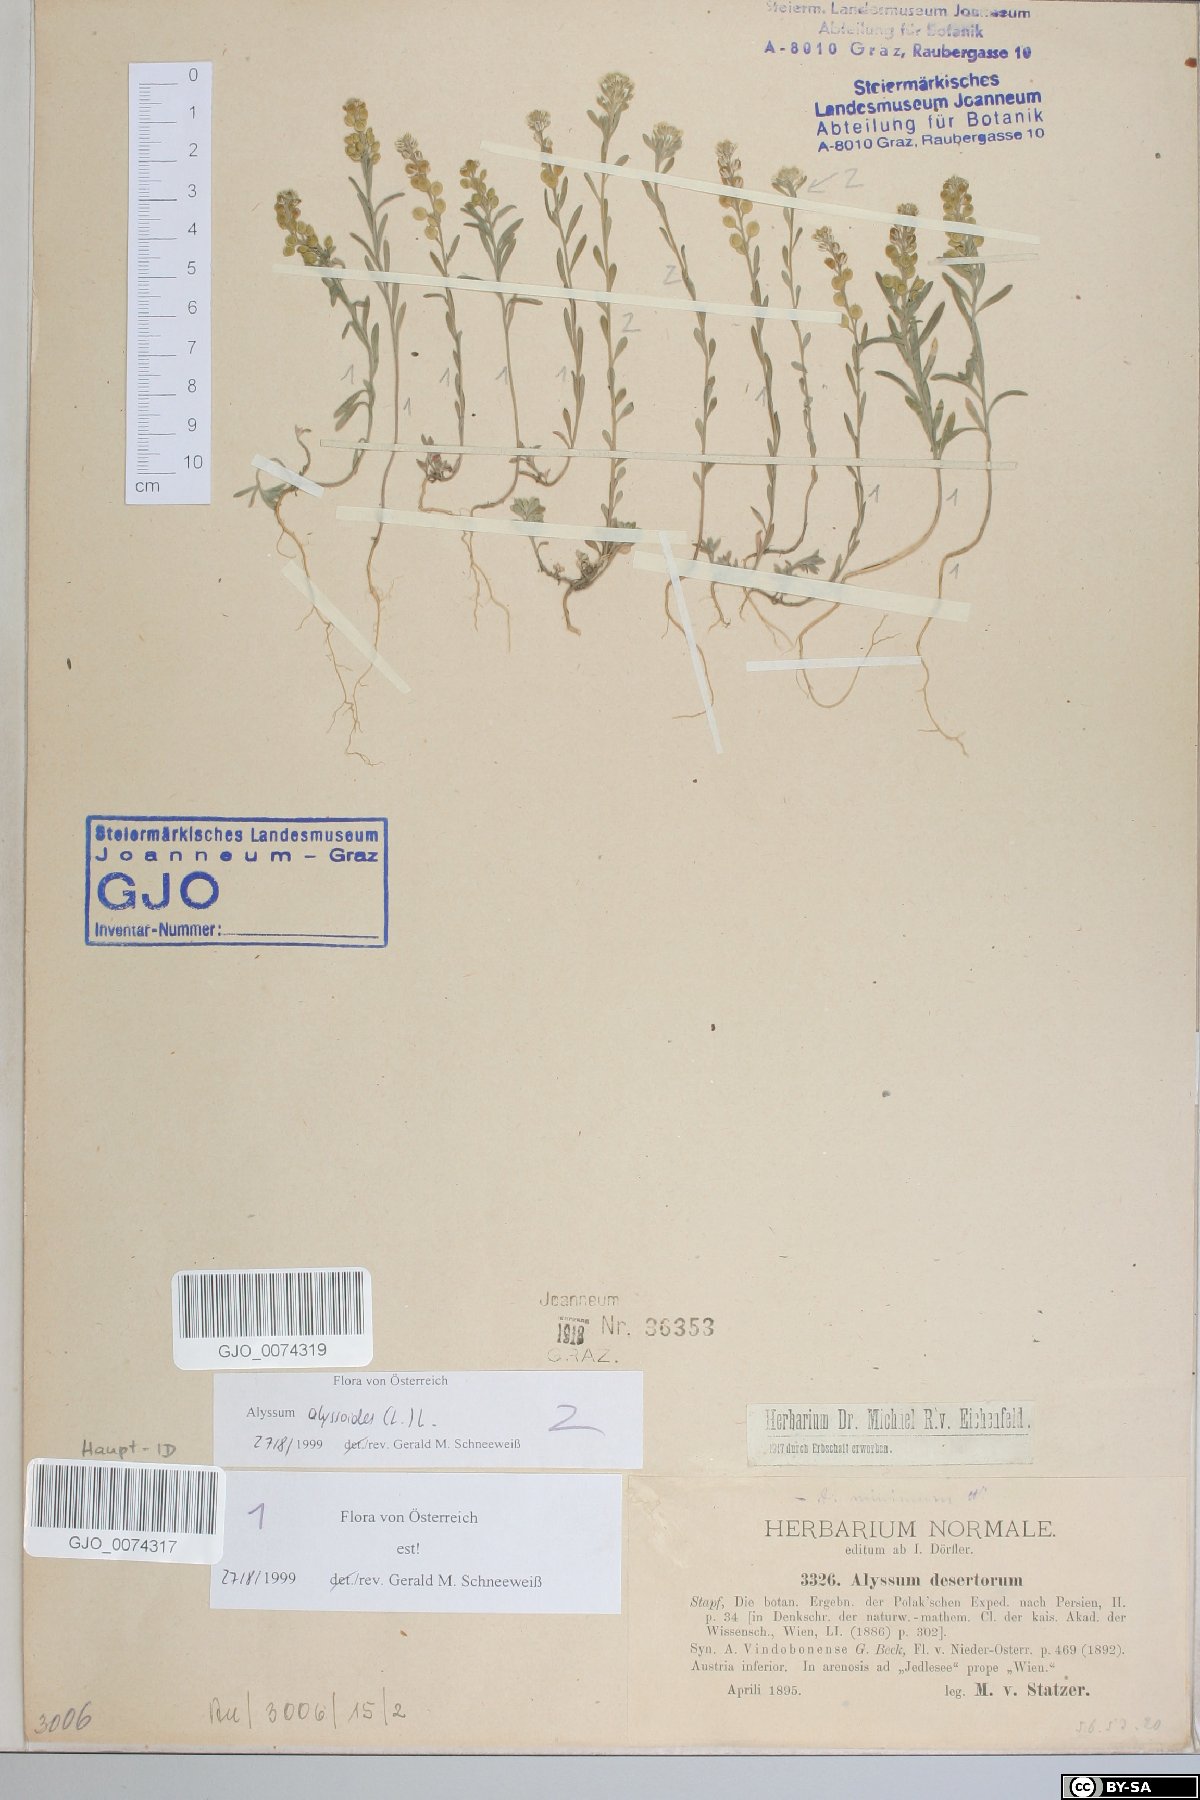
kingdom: Plantae
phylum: Tracheophyta
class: Magnoliopsida
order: Brassicales
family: Brassicaceae
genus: Alyssum
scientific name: Alyssum turkestanicum
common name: Desert alyssum
